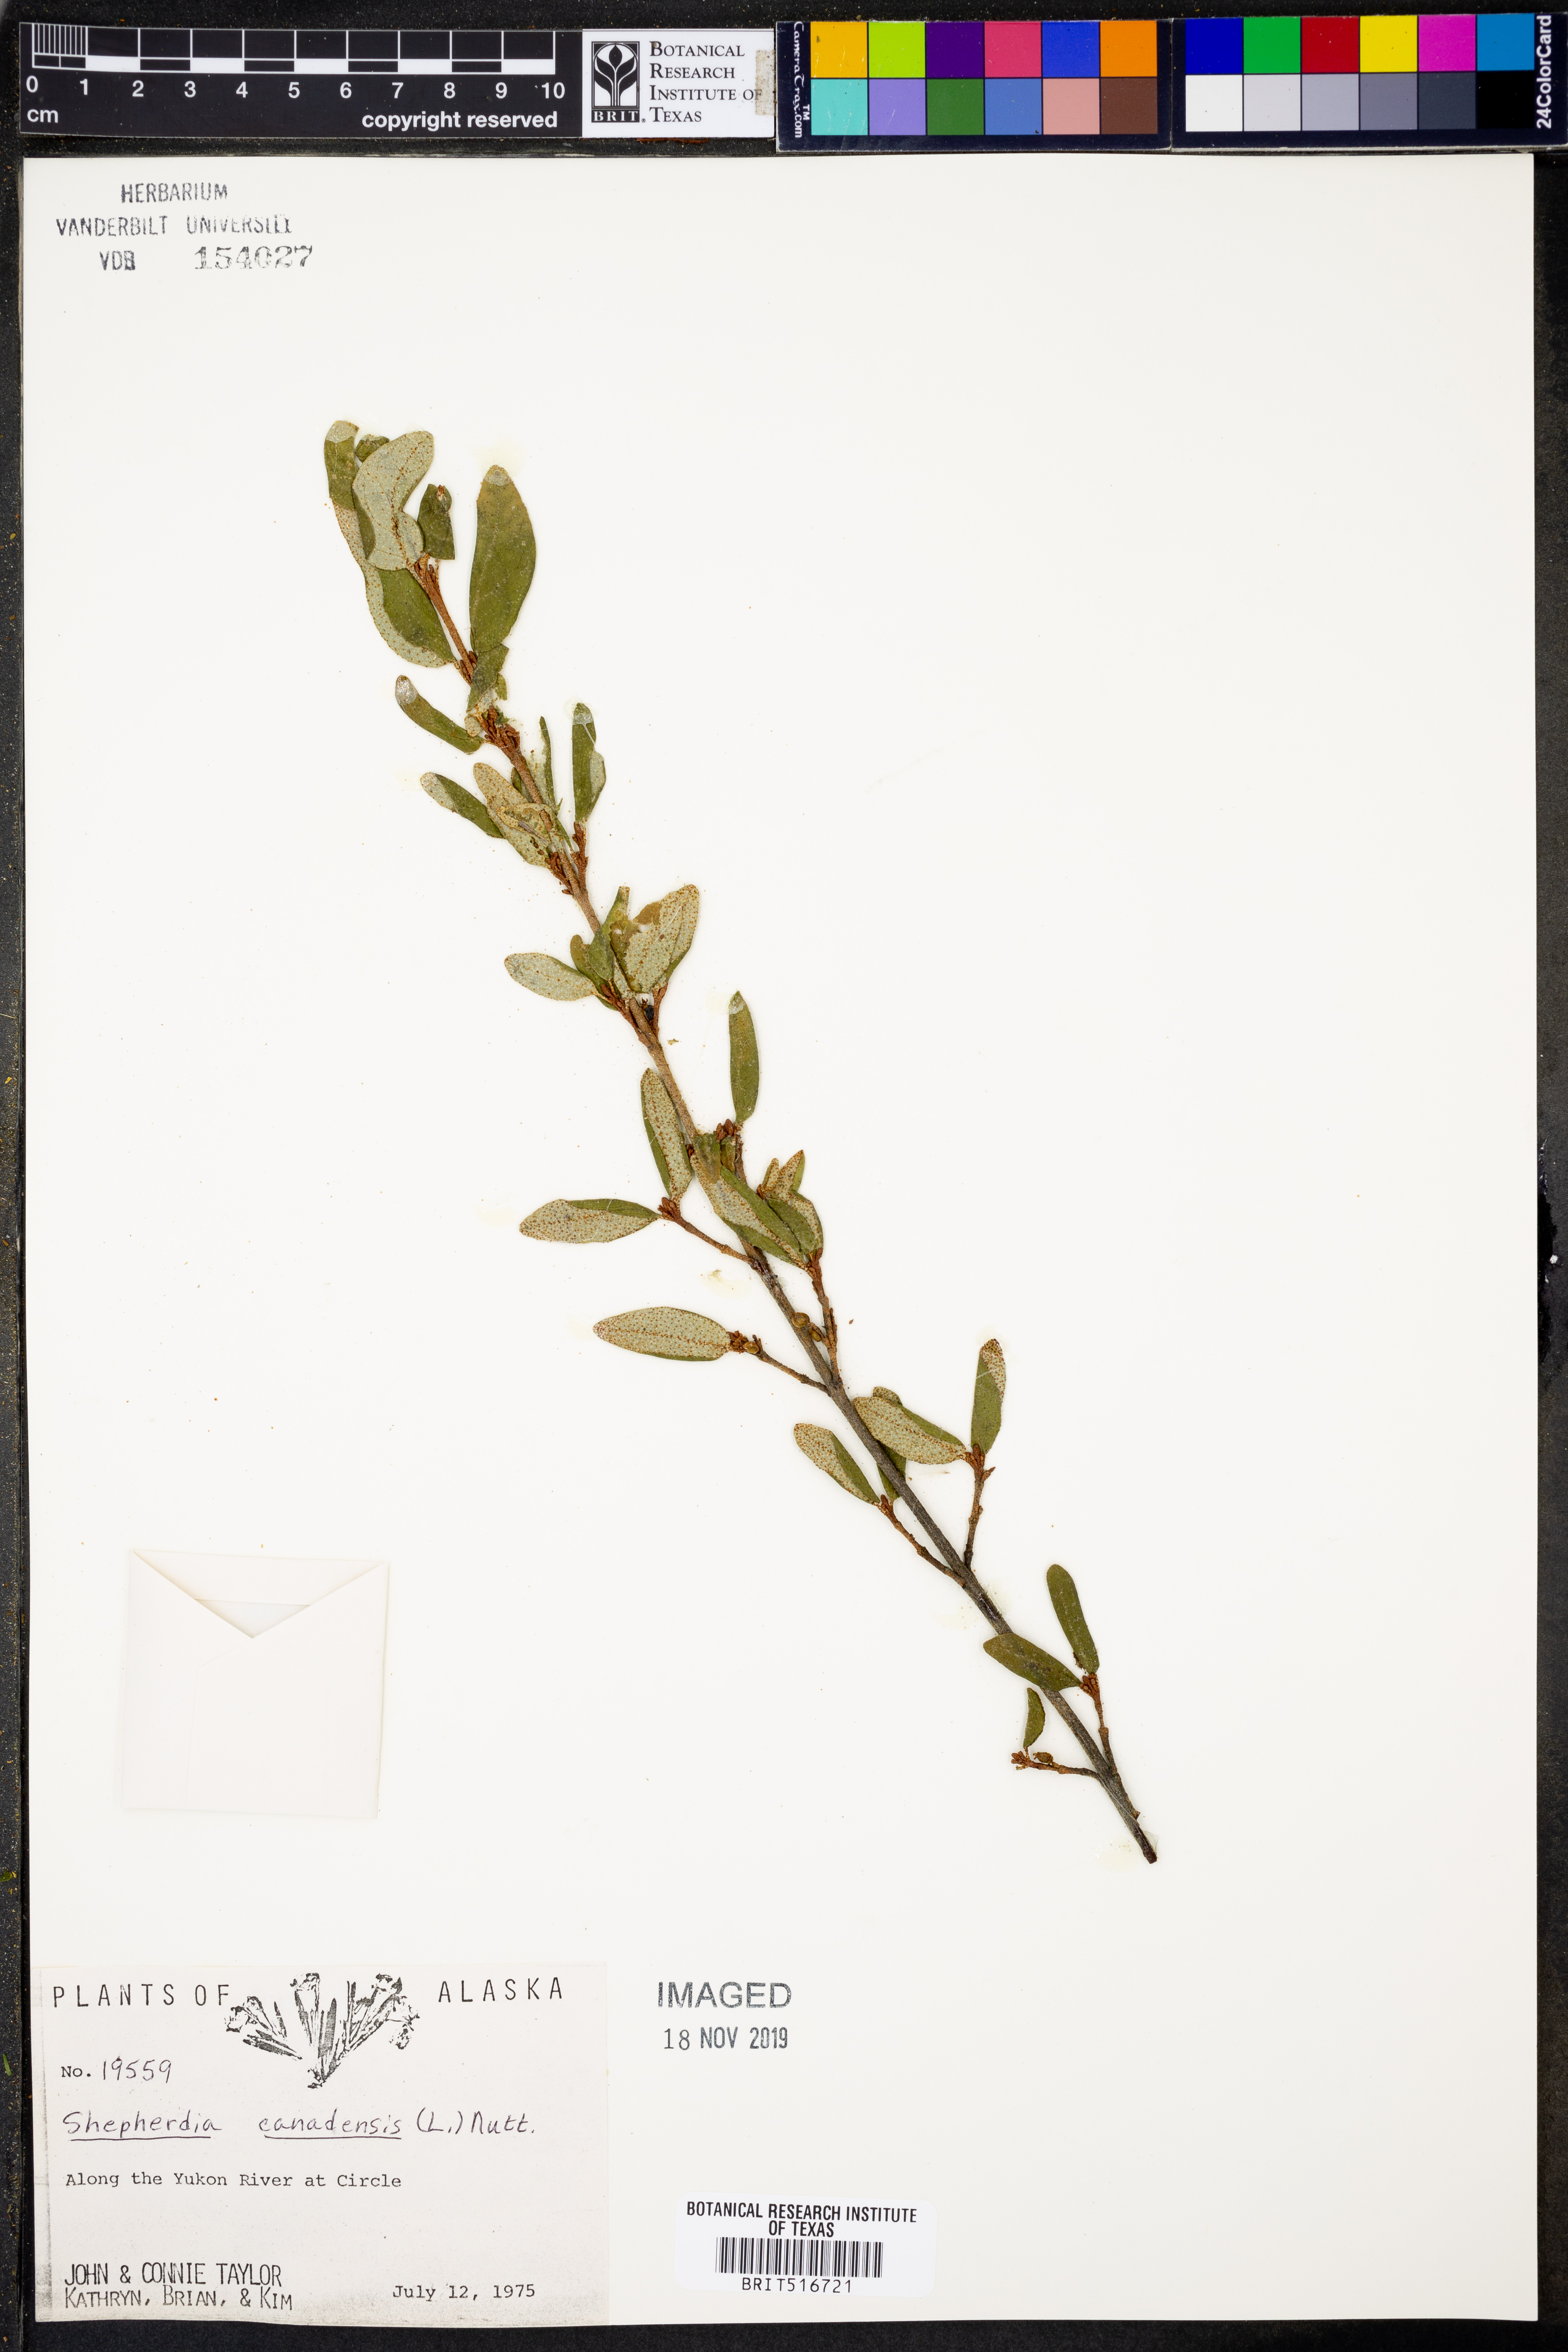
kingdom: Plantae
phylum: Tracheophyta
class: Magnoliopsida
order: Rosales
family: Elaeagnaceae
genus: Shepherdia
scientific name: Shepherdia canadensis
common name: Soapberry
